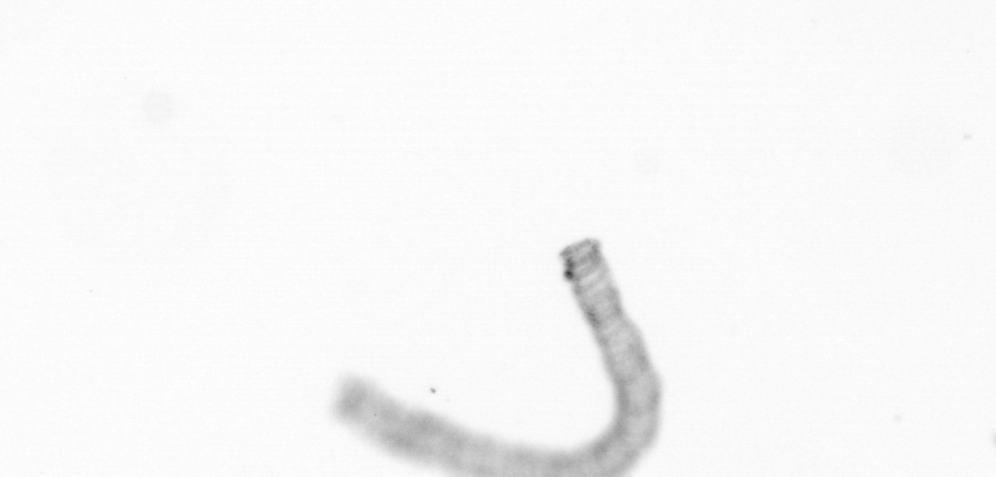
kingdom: Chromista
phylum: Ochrophyta
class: Bacillariophyceae
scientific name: Bacillariophyceae
